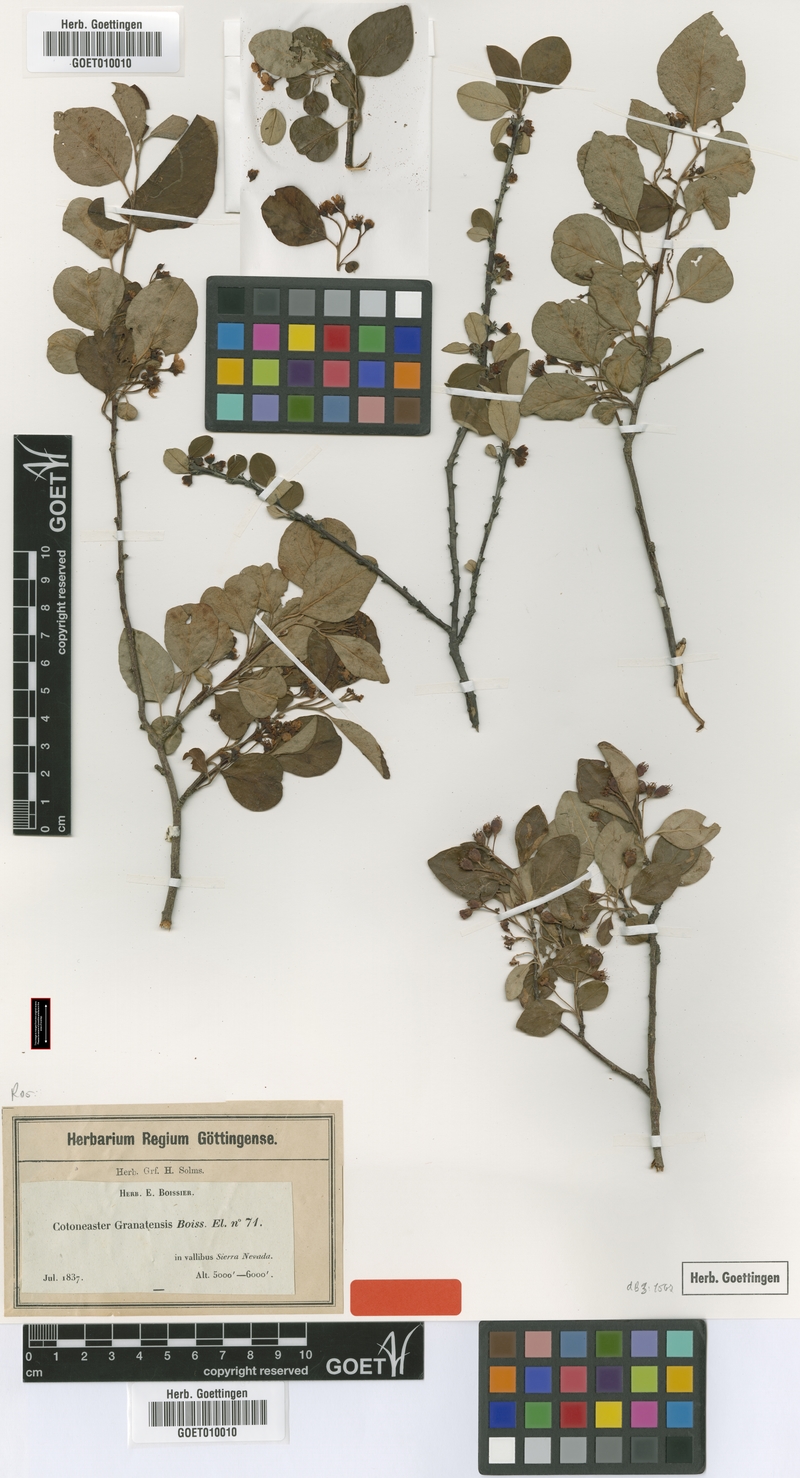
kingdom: Plantae
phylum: Tracheophyta
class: Magnoliopsida
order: Rosales
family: Rosaceae
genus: Cotoneaster
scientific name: Cotoneaster granatensis
